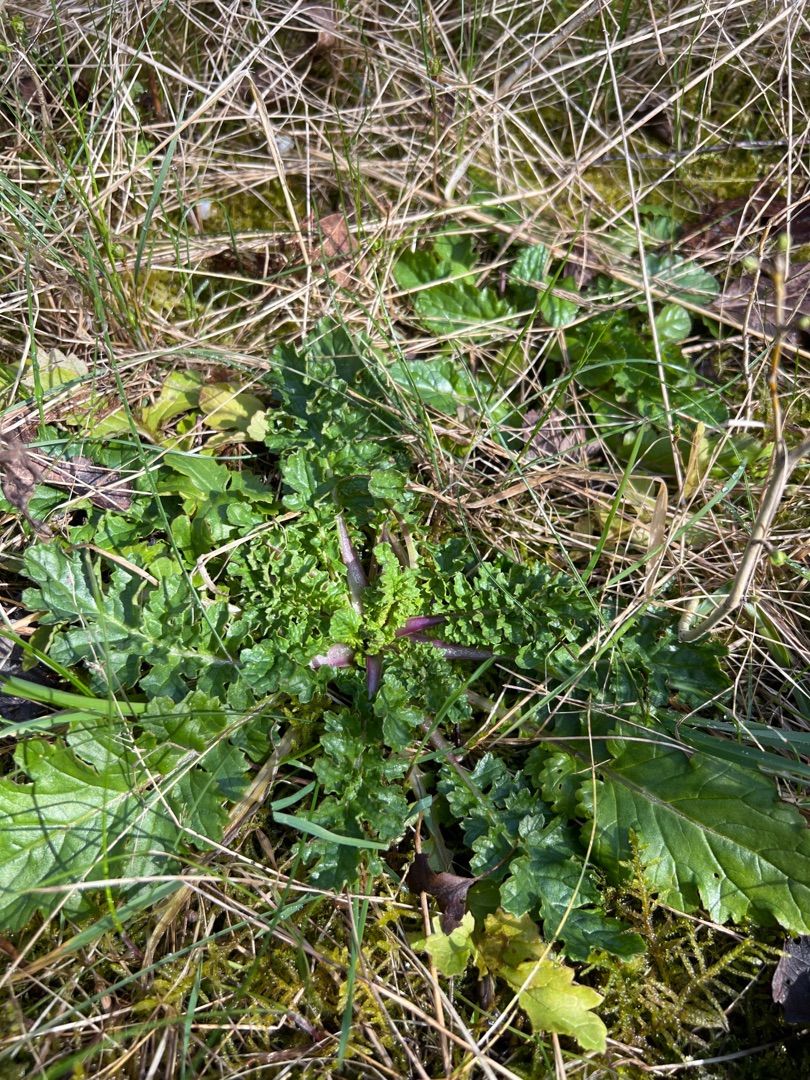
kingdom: Plantae
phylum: Tracheophyta
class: Magnoliopsida
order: Asterales
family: Asteraceae
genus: Jacobaea
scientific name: Jacobaea vulgaris
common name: Eng-brandbæger
